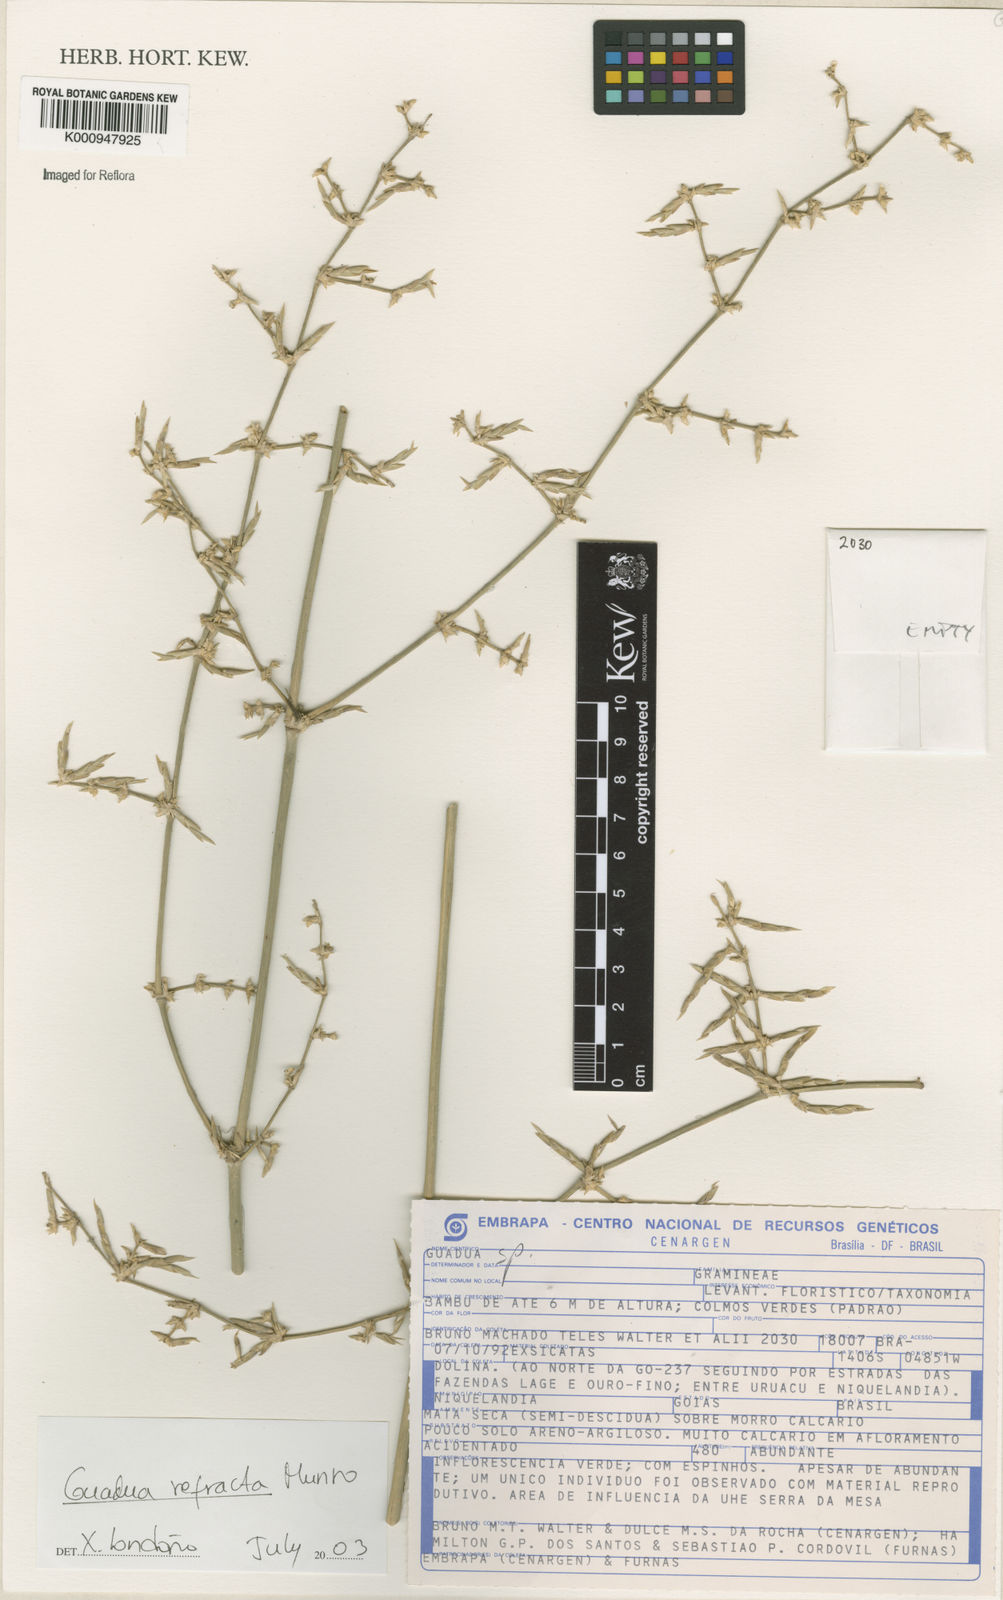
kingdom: Plantae
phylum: Tracheophyta
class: Liliopsida
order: Poales
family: Poaceae
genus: Guadua
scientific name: Guadua
